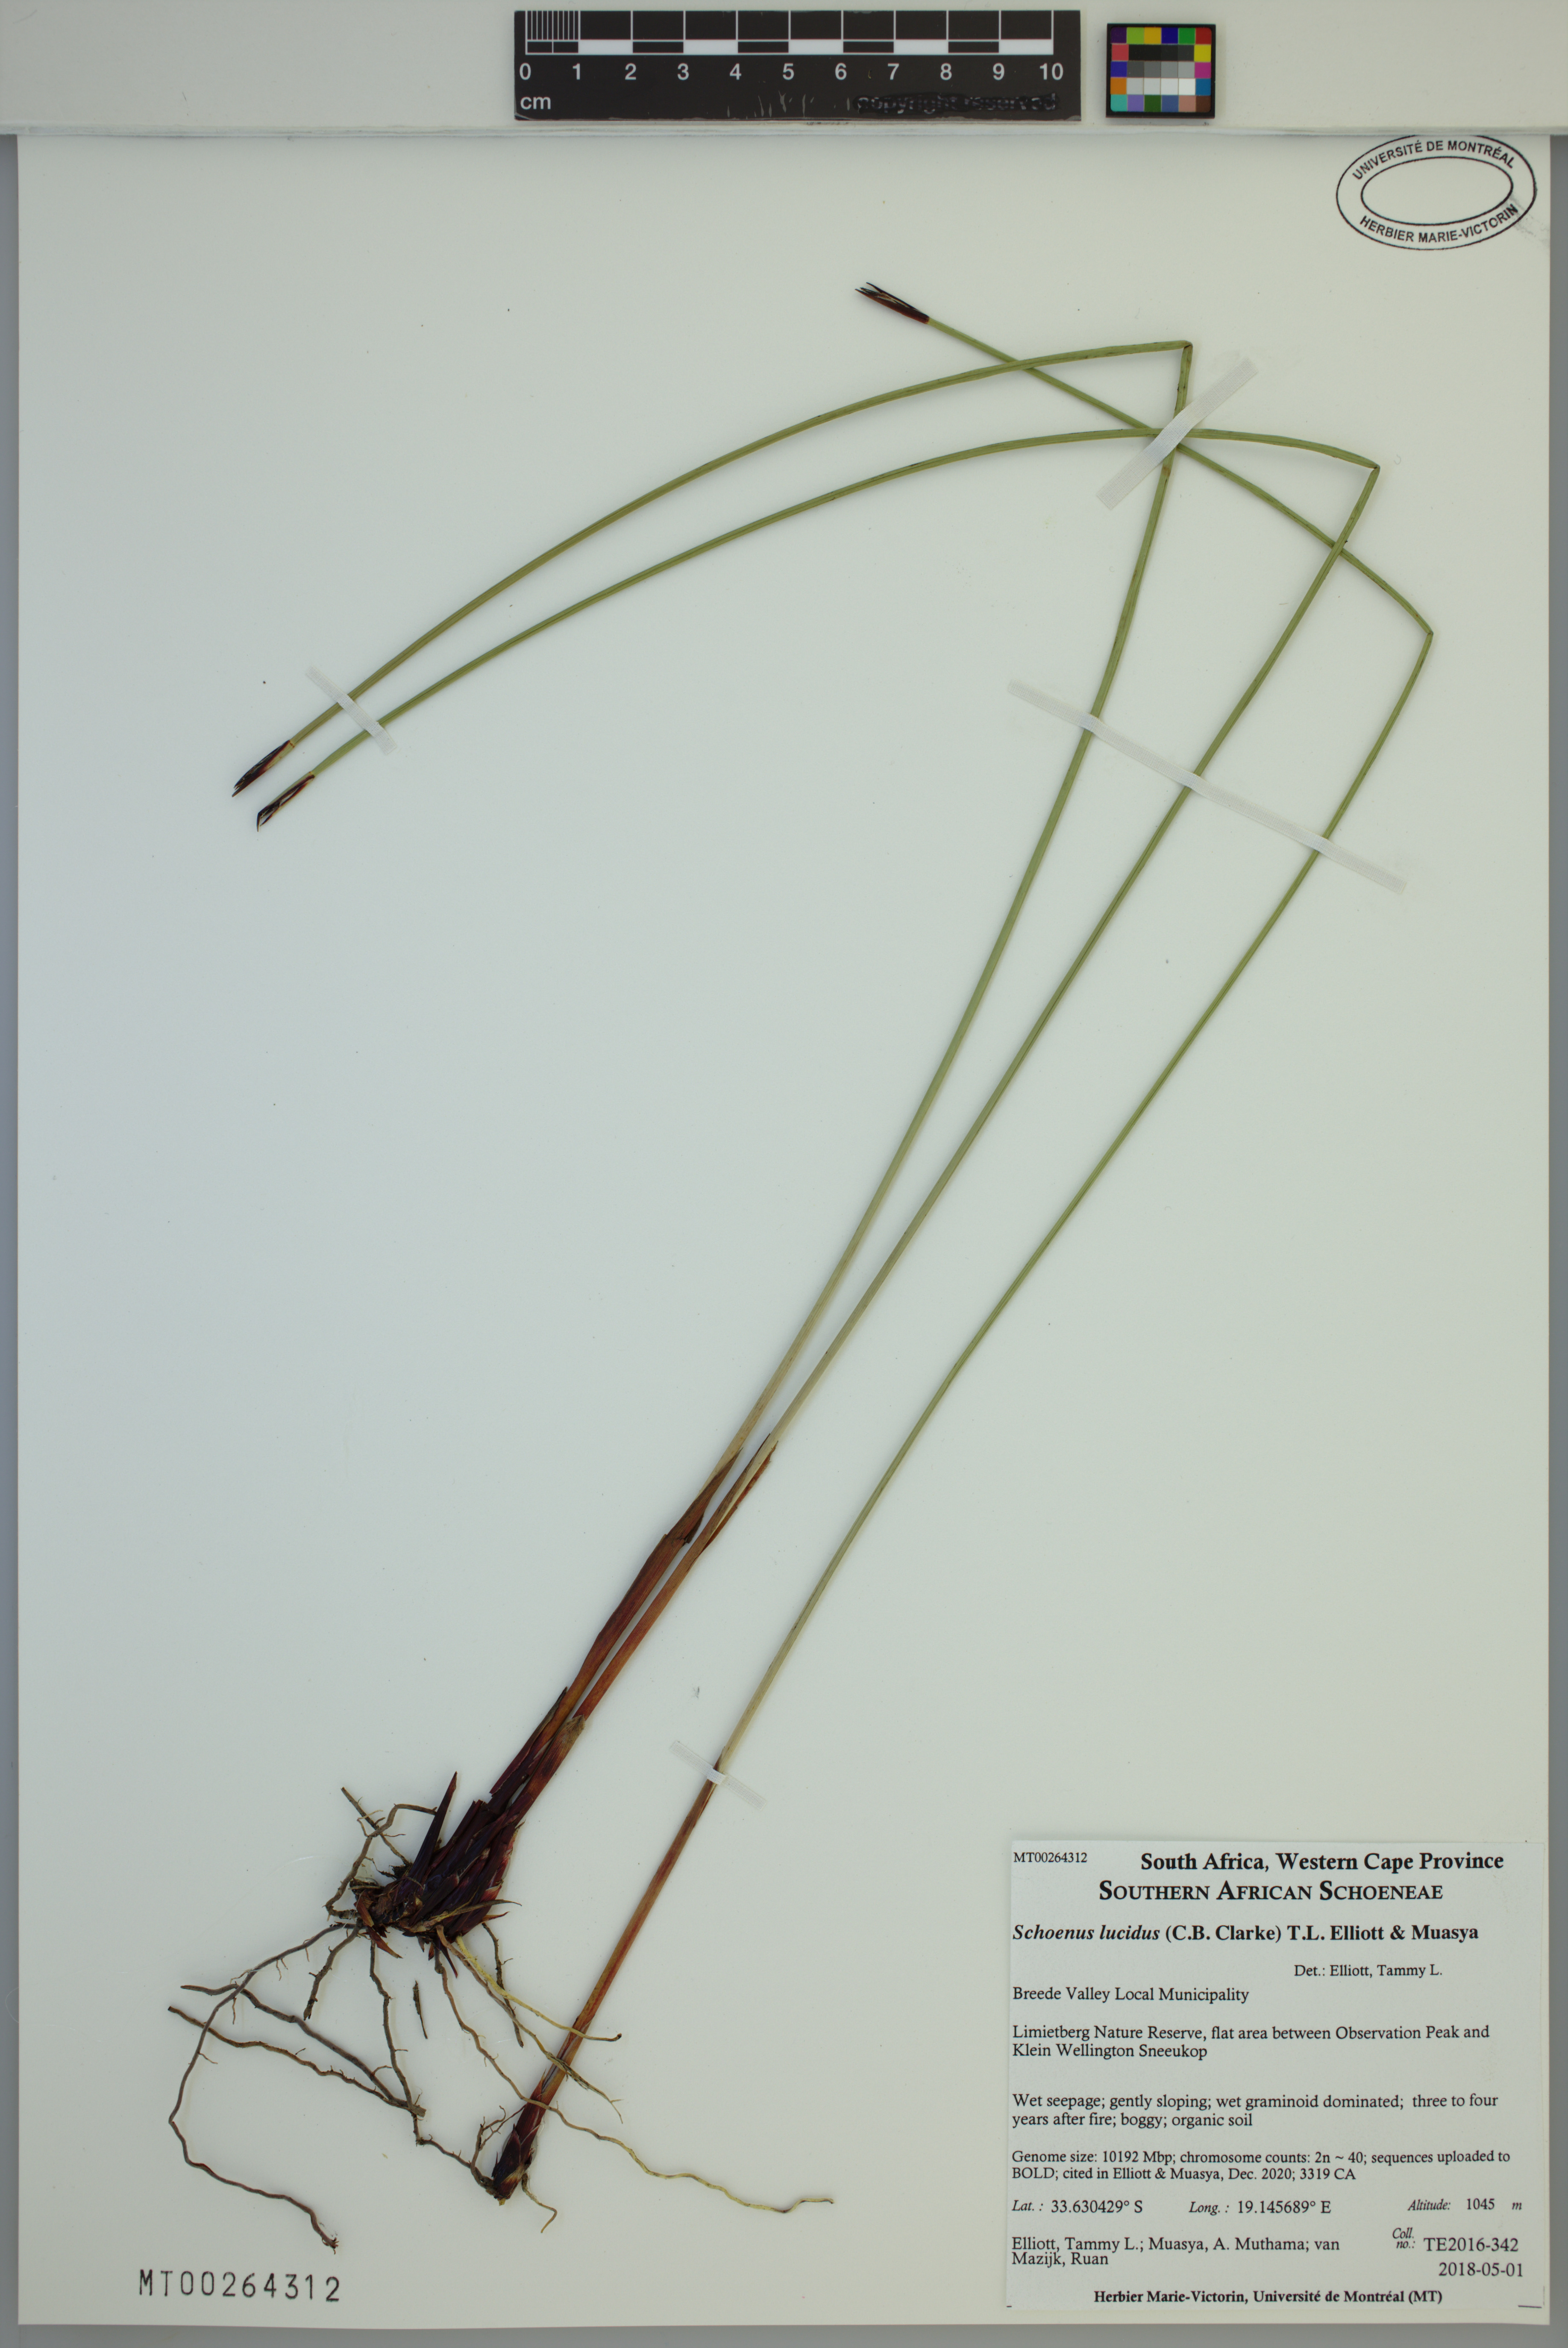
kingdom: Plantae
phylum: Tracheophyta
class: Liliopsida
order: Poales
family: Cyperaceae
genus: Schoenus
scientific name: Schoenus lucidus
